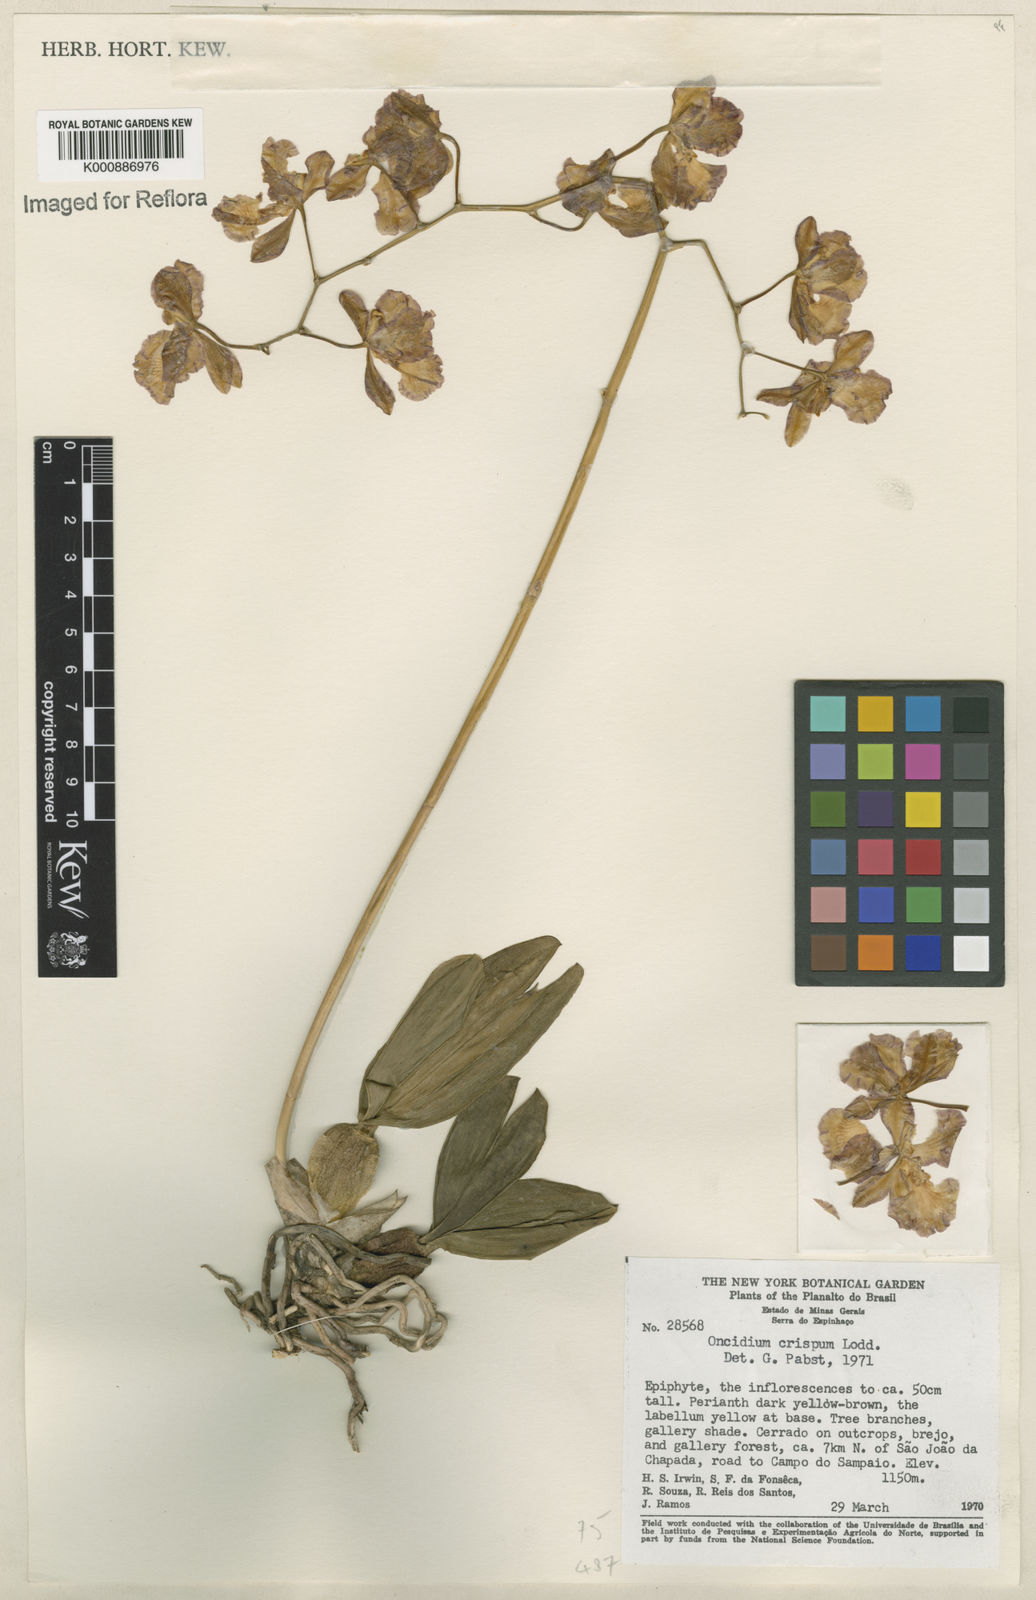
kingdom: Plantae
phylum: Tracheophyta
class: Liliopsida
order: Asparagales
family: Orchidaceae
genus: Gomesa
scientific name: Gomesa praetexta
